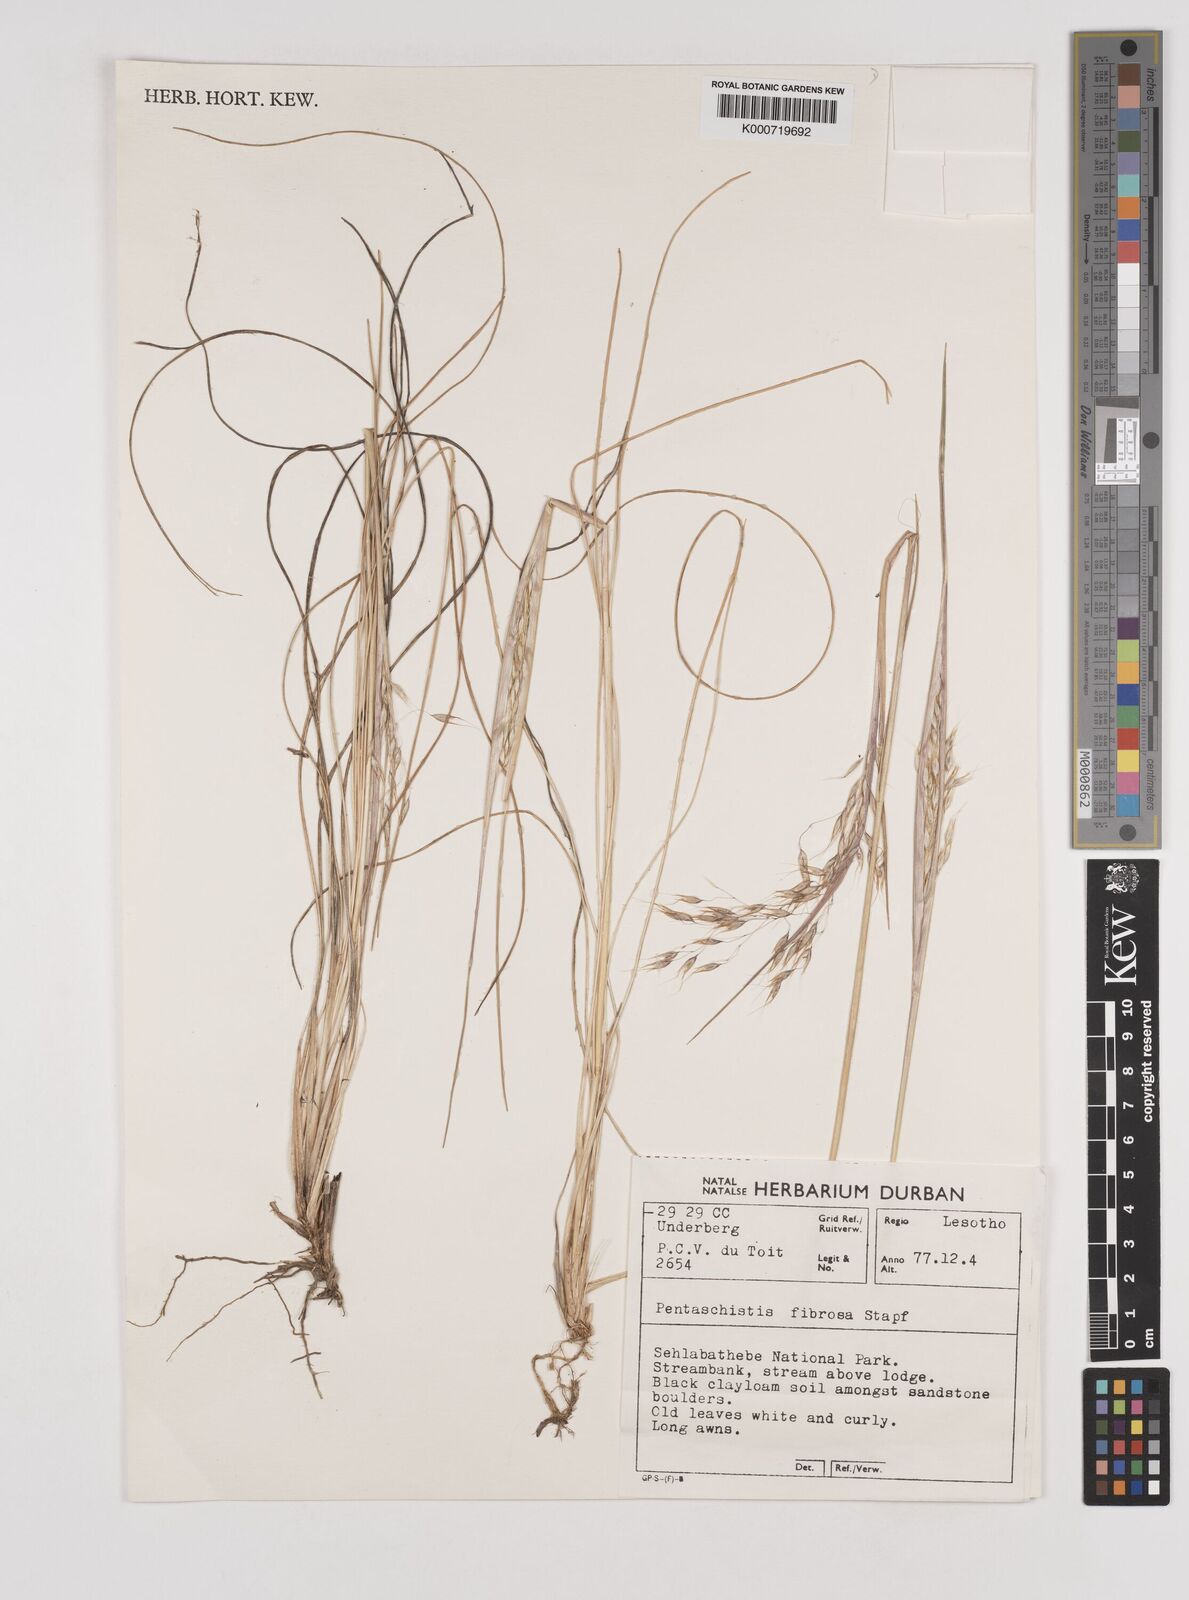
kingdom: Plantae
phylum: Tracheophyta
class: Liliopsida
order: Poales
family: Poaceae
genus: Pentameris
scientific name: Pentameris tysonii
